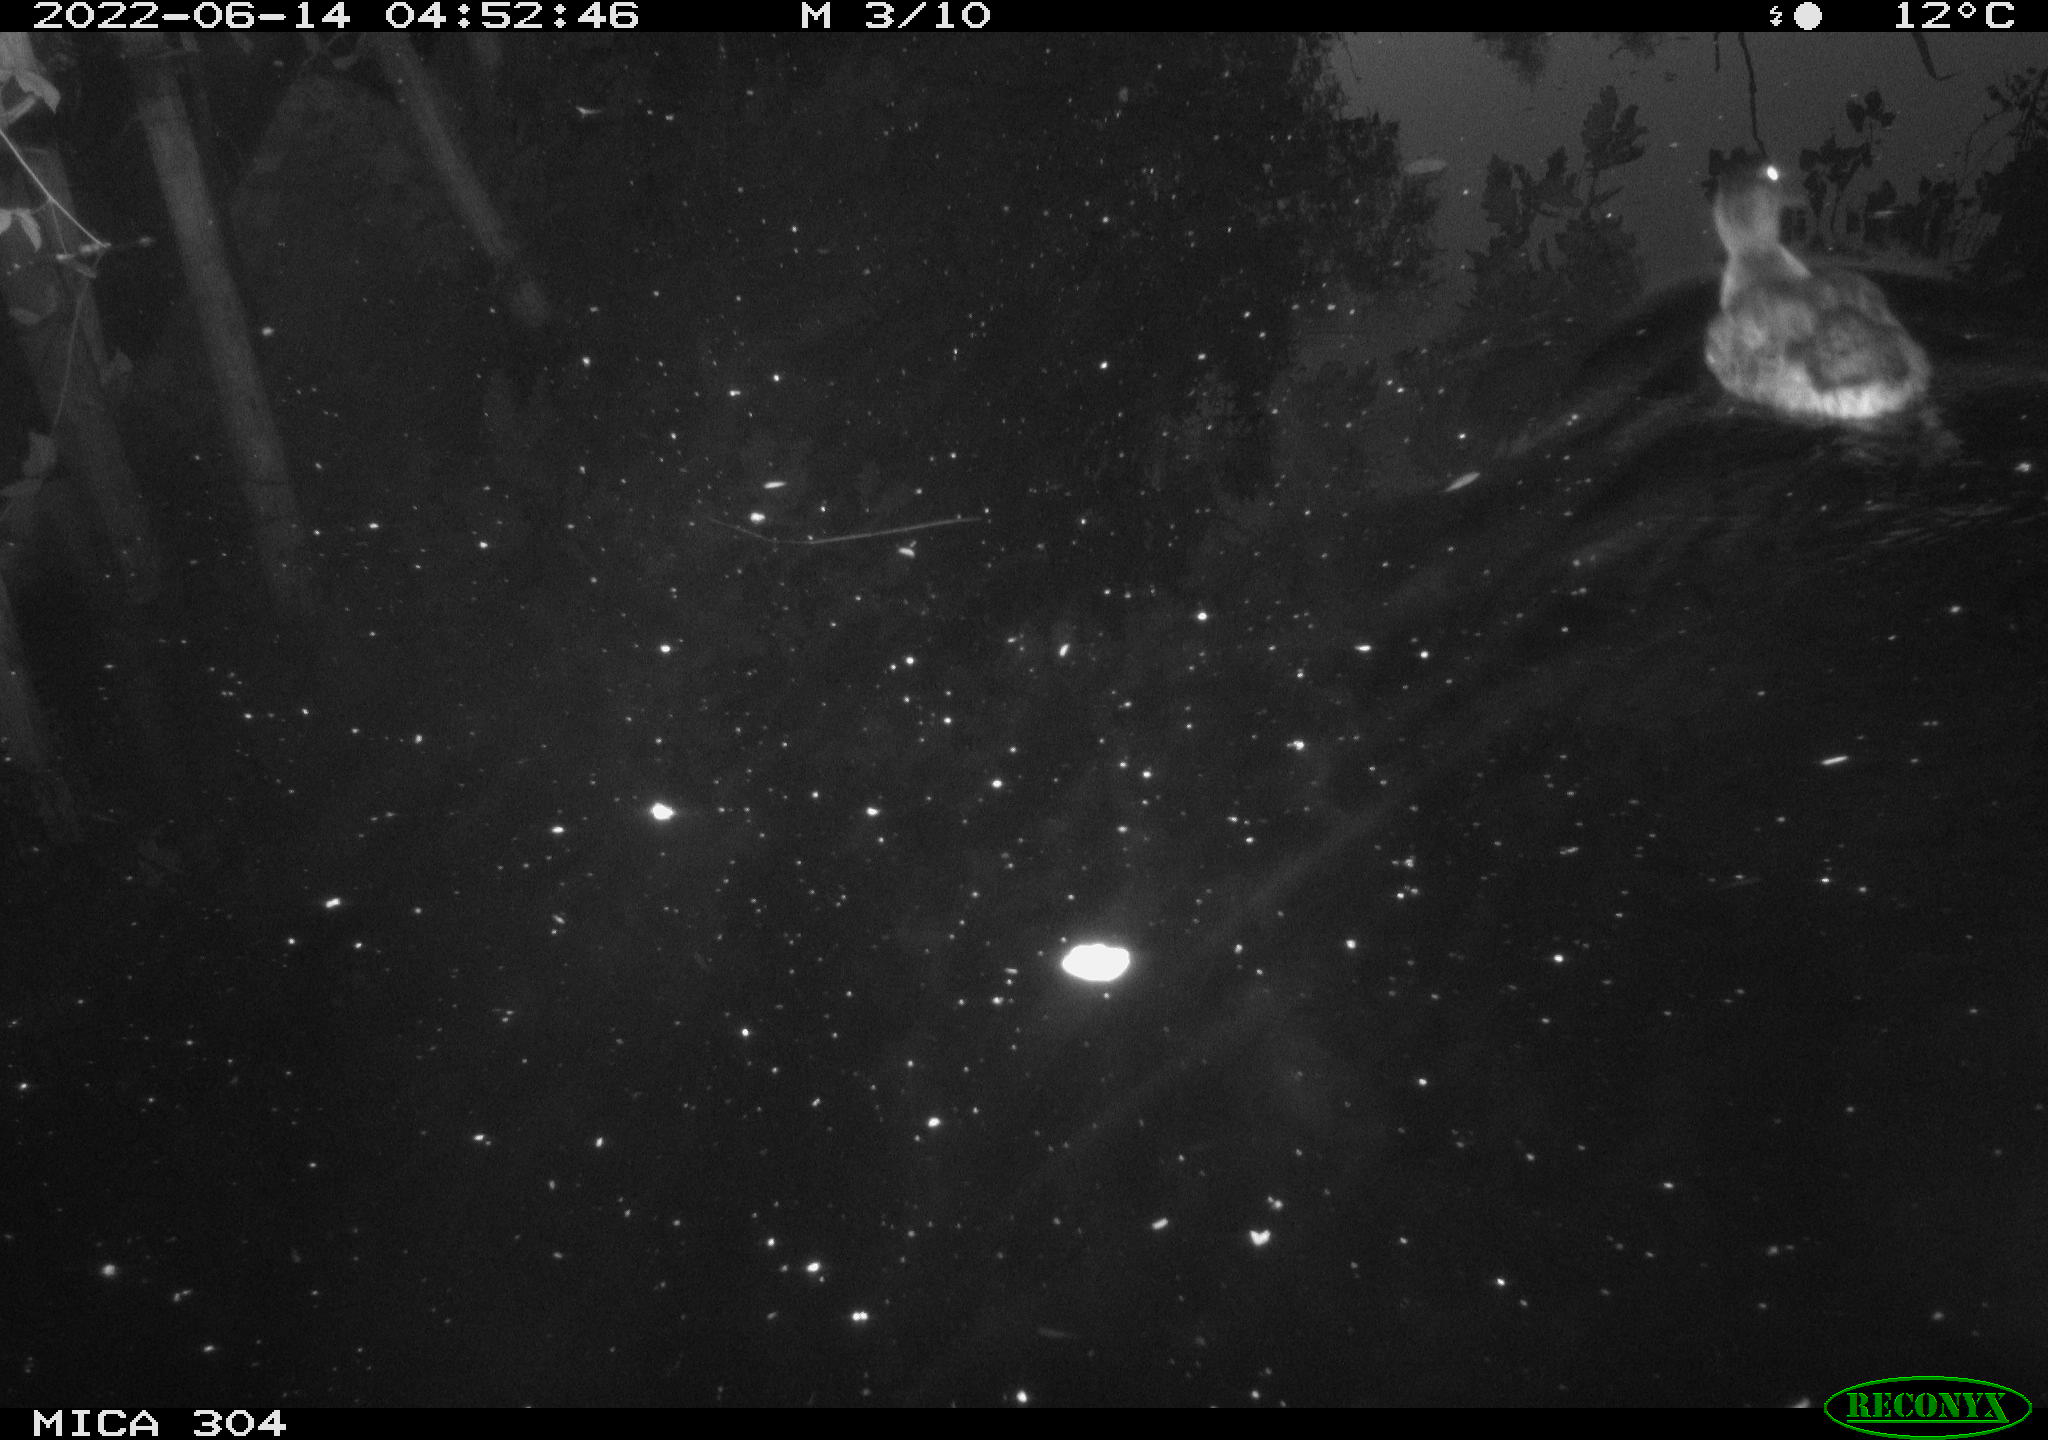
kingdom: Animalia
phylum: Chordata
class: Aves
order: Anseriformes
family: Anatidae
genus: Anas
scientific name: Anas platyrhynchos
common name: Mallard
